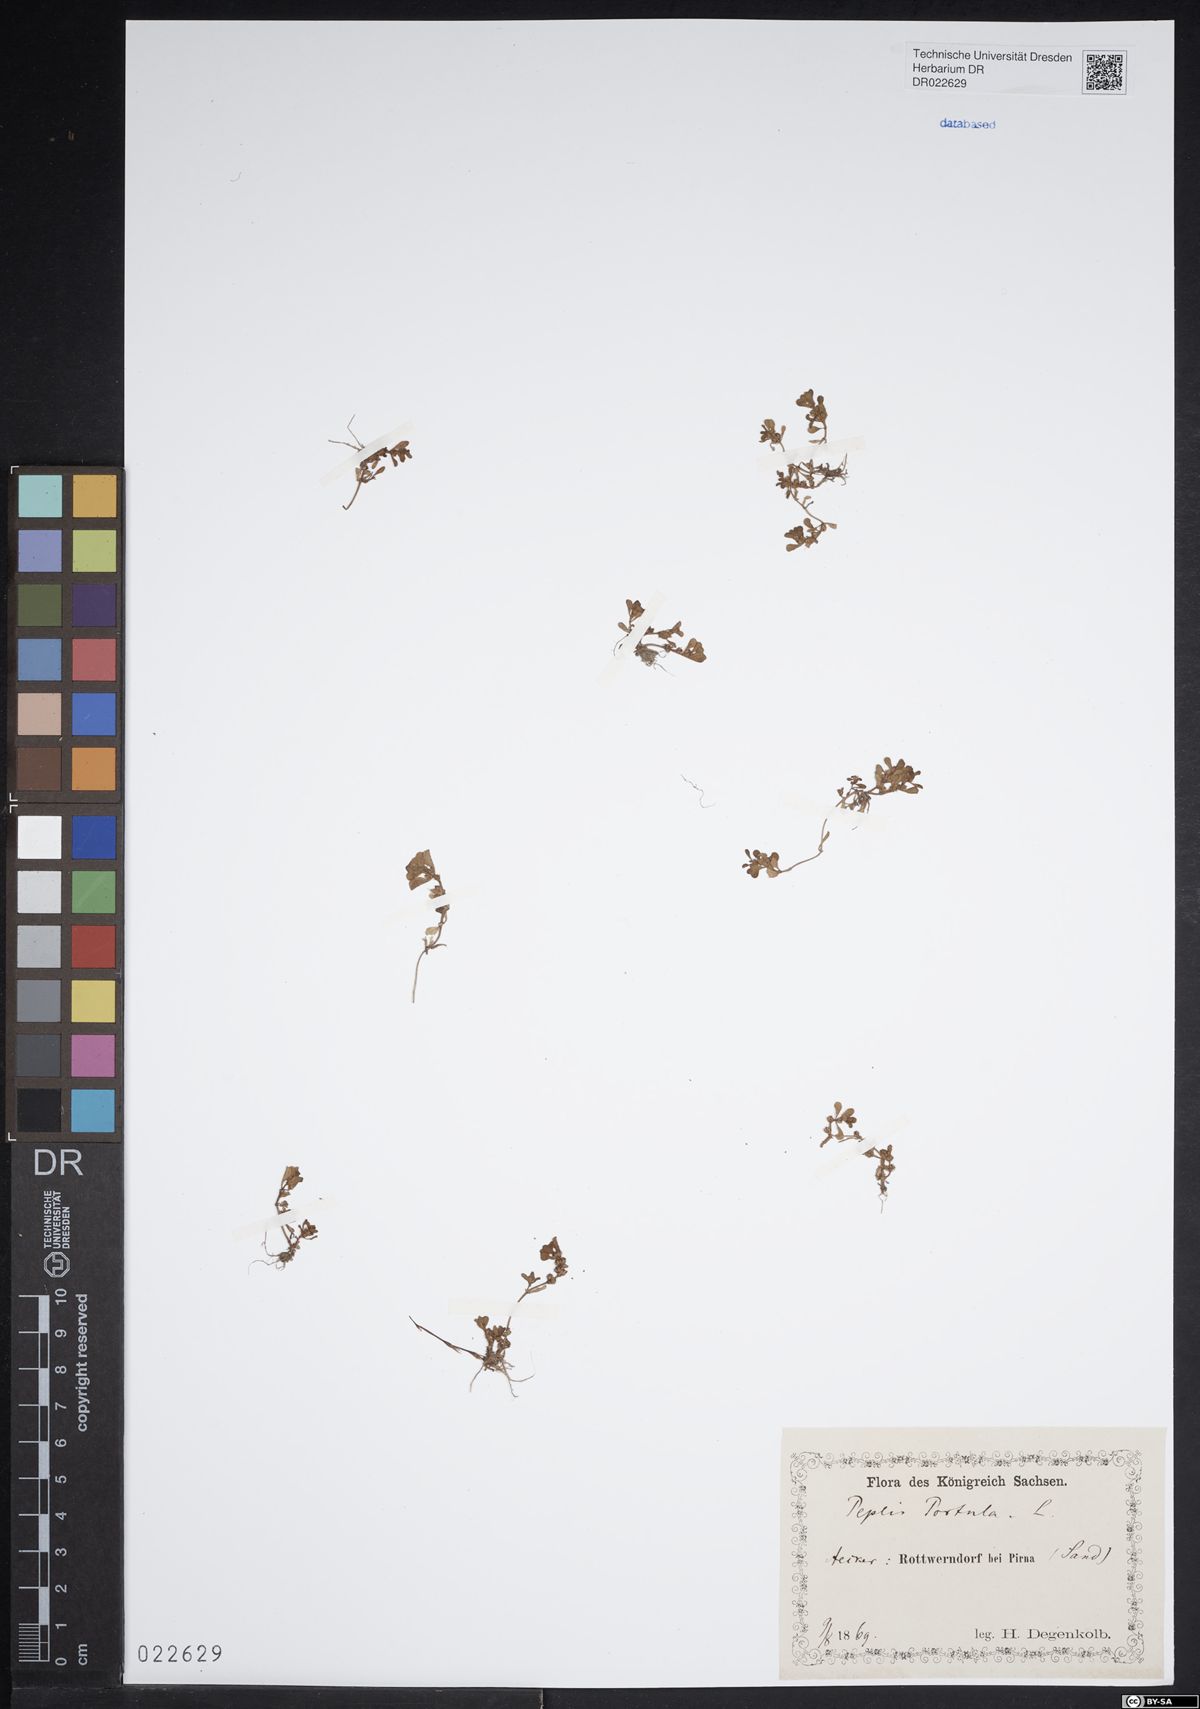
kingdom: Plantae
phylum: Tracheophyta
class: Magnoliopsida
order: Myrtales
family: Lythraceae
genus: Lythrum
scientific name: Lythrum portula
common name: Water purslane
